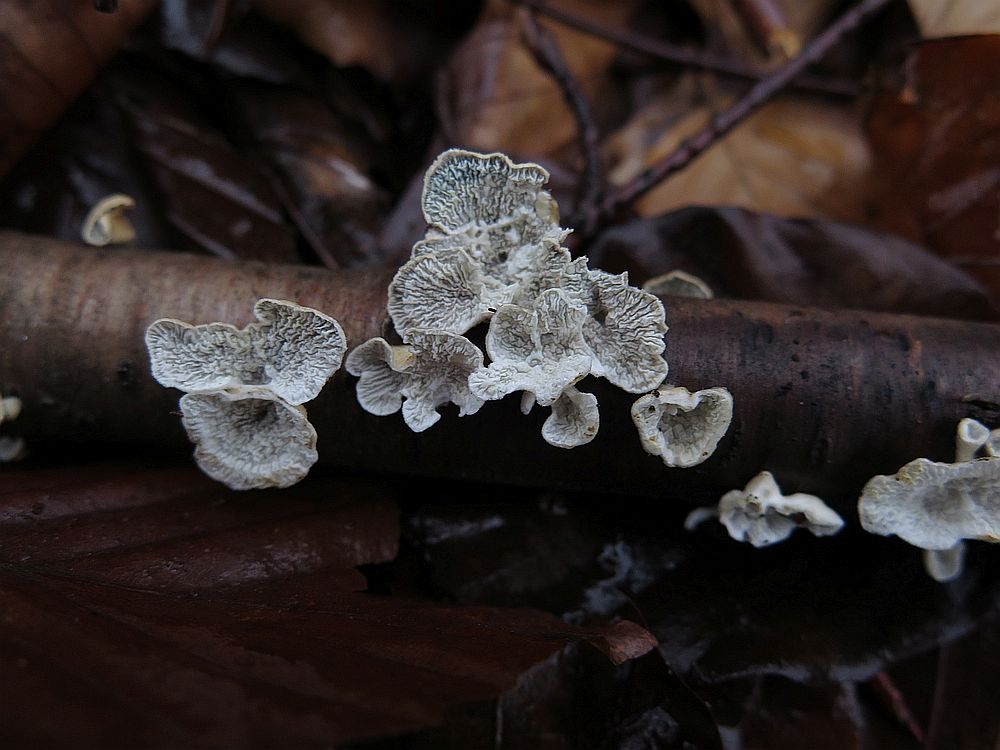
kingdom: Fungi
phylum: Basidiomycota
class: Agaricomycetes
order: Amylocorticiales
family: Amylocorticiaceae
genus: Plicaturopsis
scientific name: Plicaturopsis crispa
